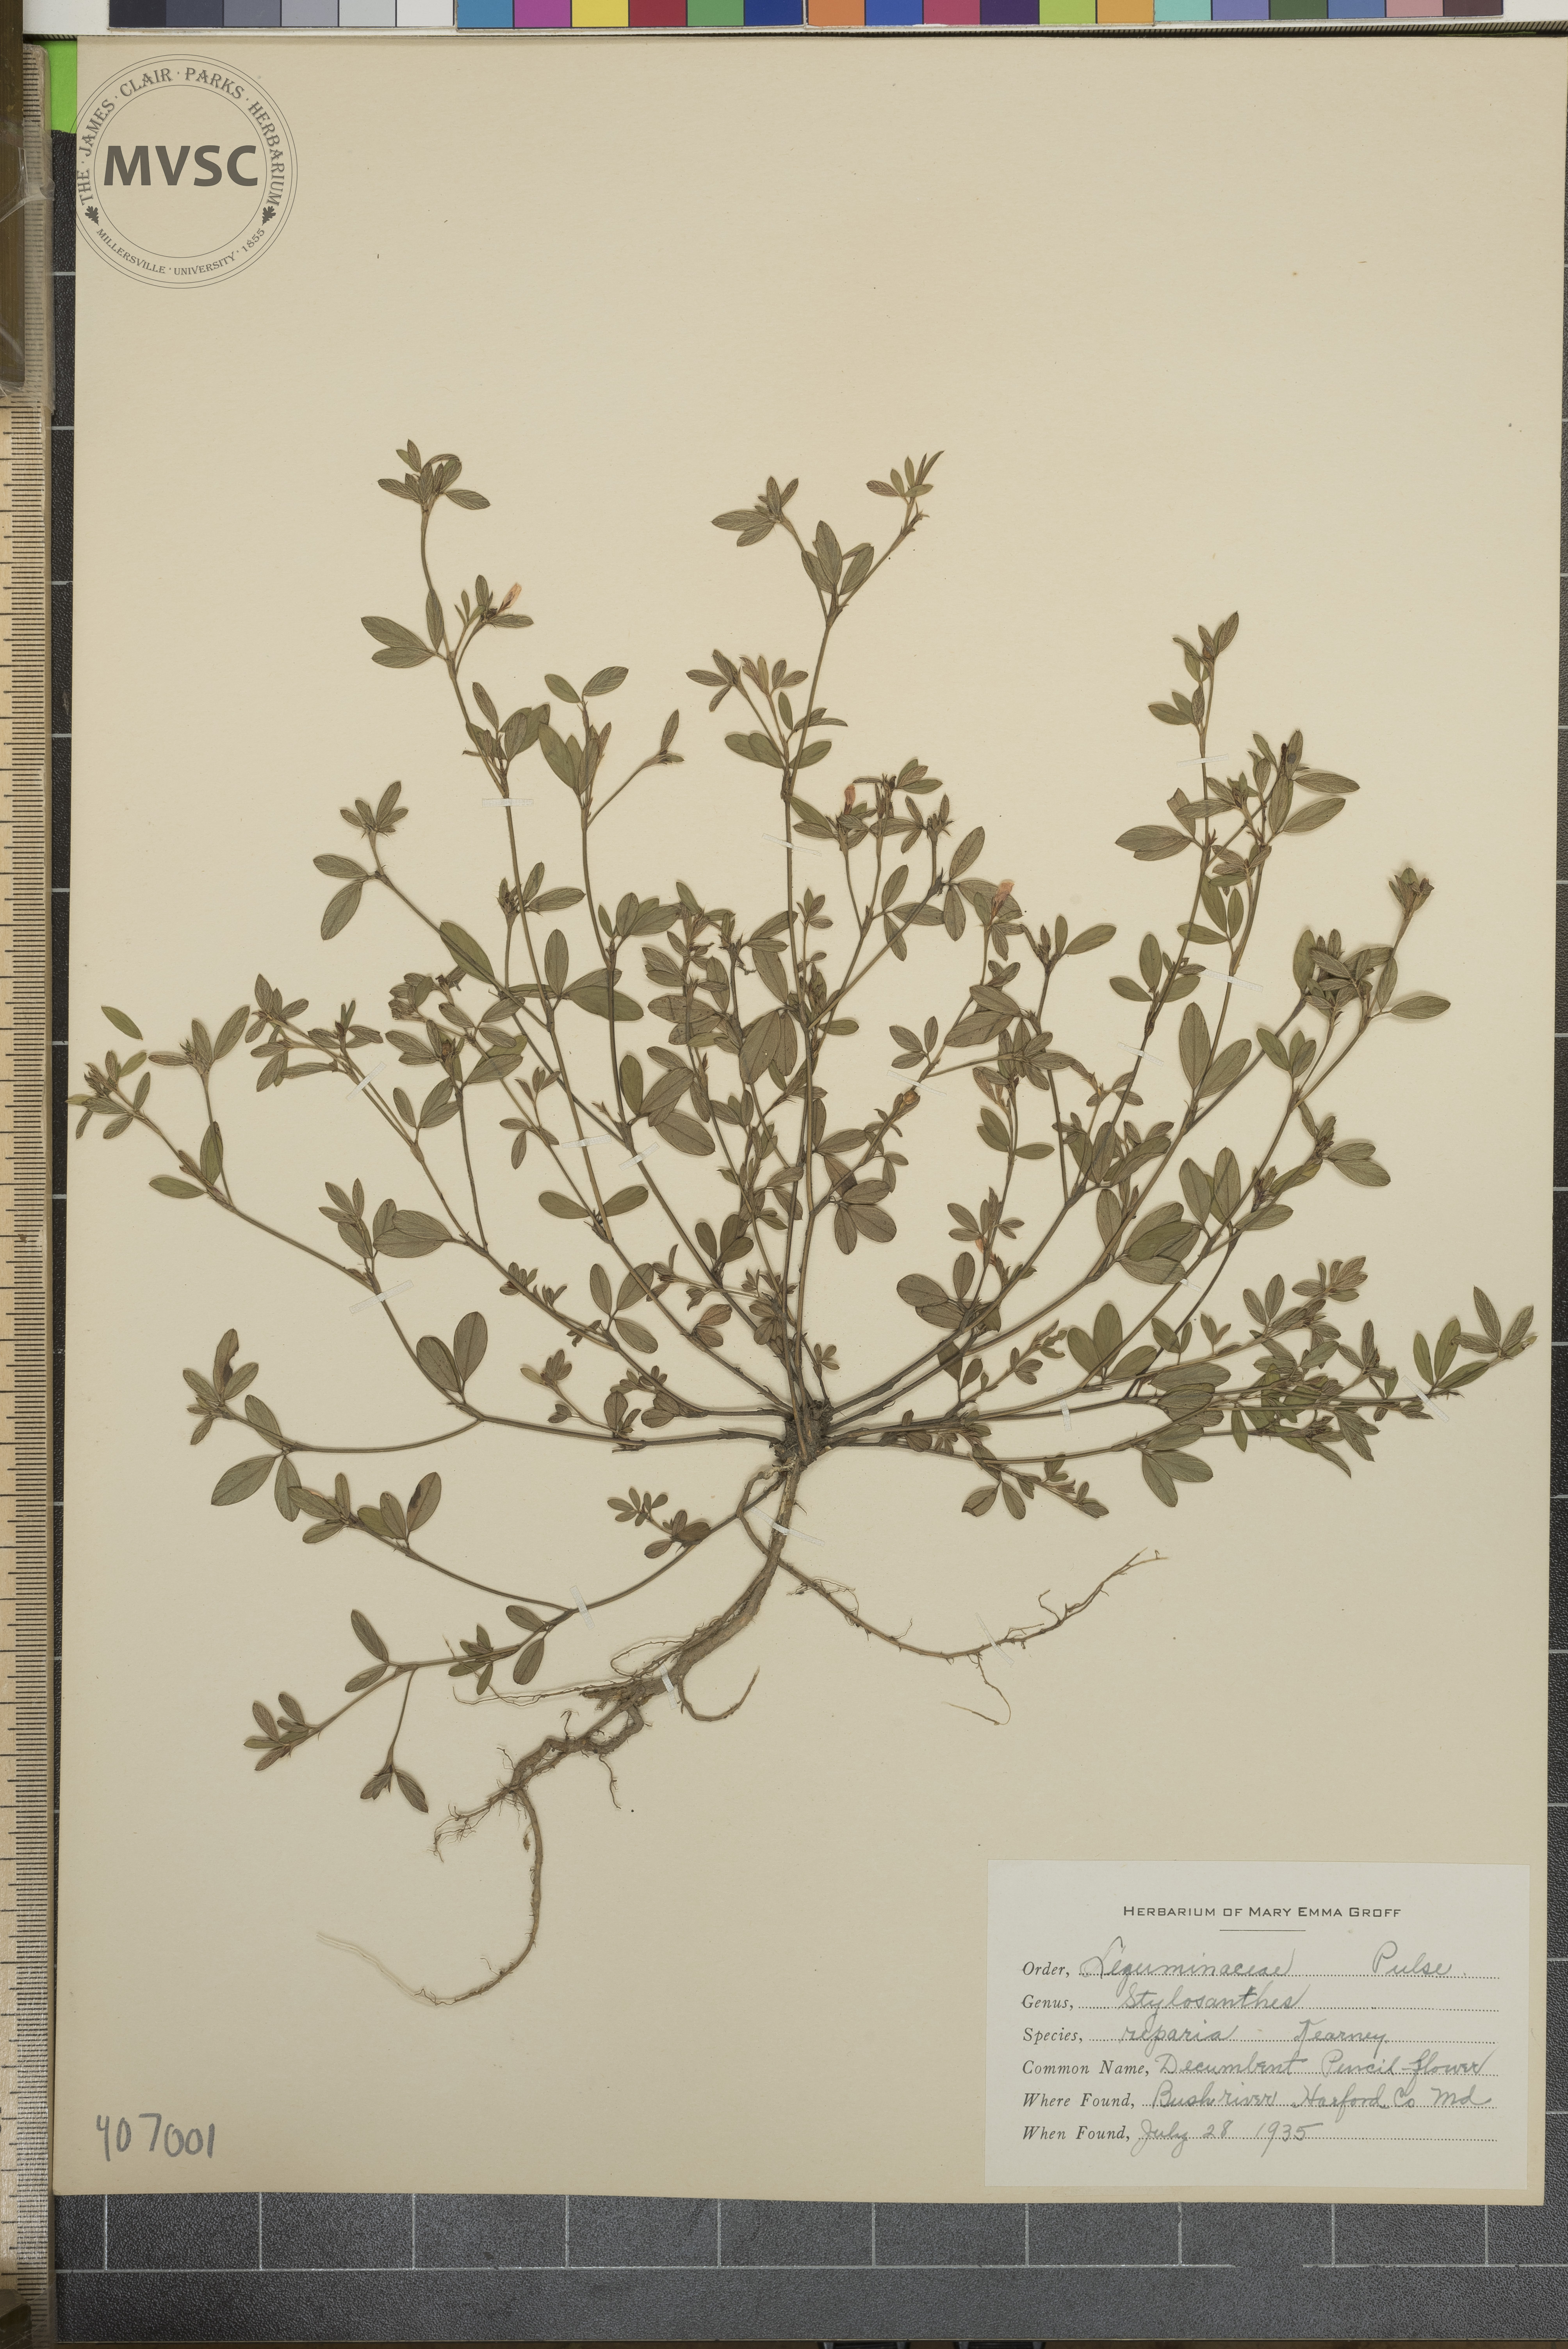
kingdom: Plantae
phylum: Tracheophyta
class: Magnoliopsida
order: Fabales
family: Fabaceae
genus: Stylosanthes
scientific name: Stylosanthes biflora
